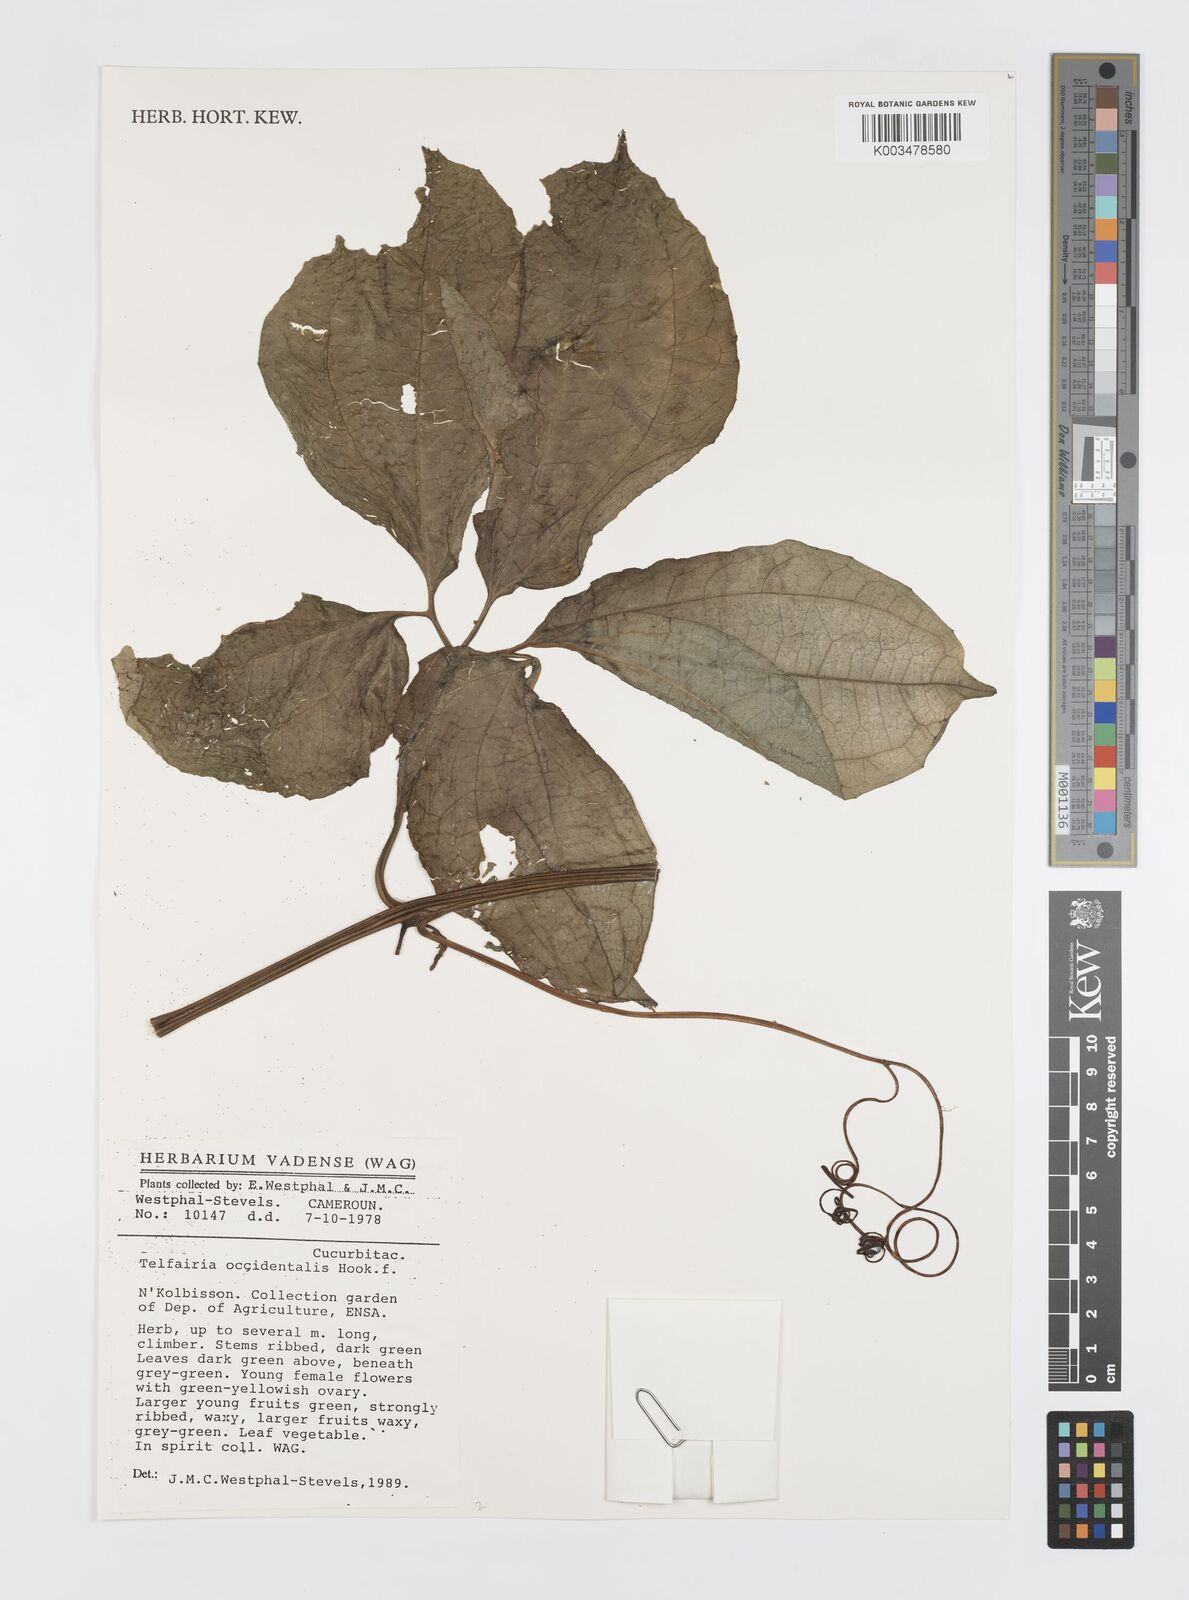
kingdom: Plantae
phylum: Tracheophyta
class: Magnoliopsida
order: Cucurbitales
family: Cucurbitaceae
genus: Telfairia
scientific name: Telfairia occidentalis
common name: Oysternut
